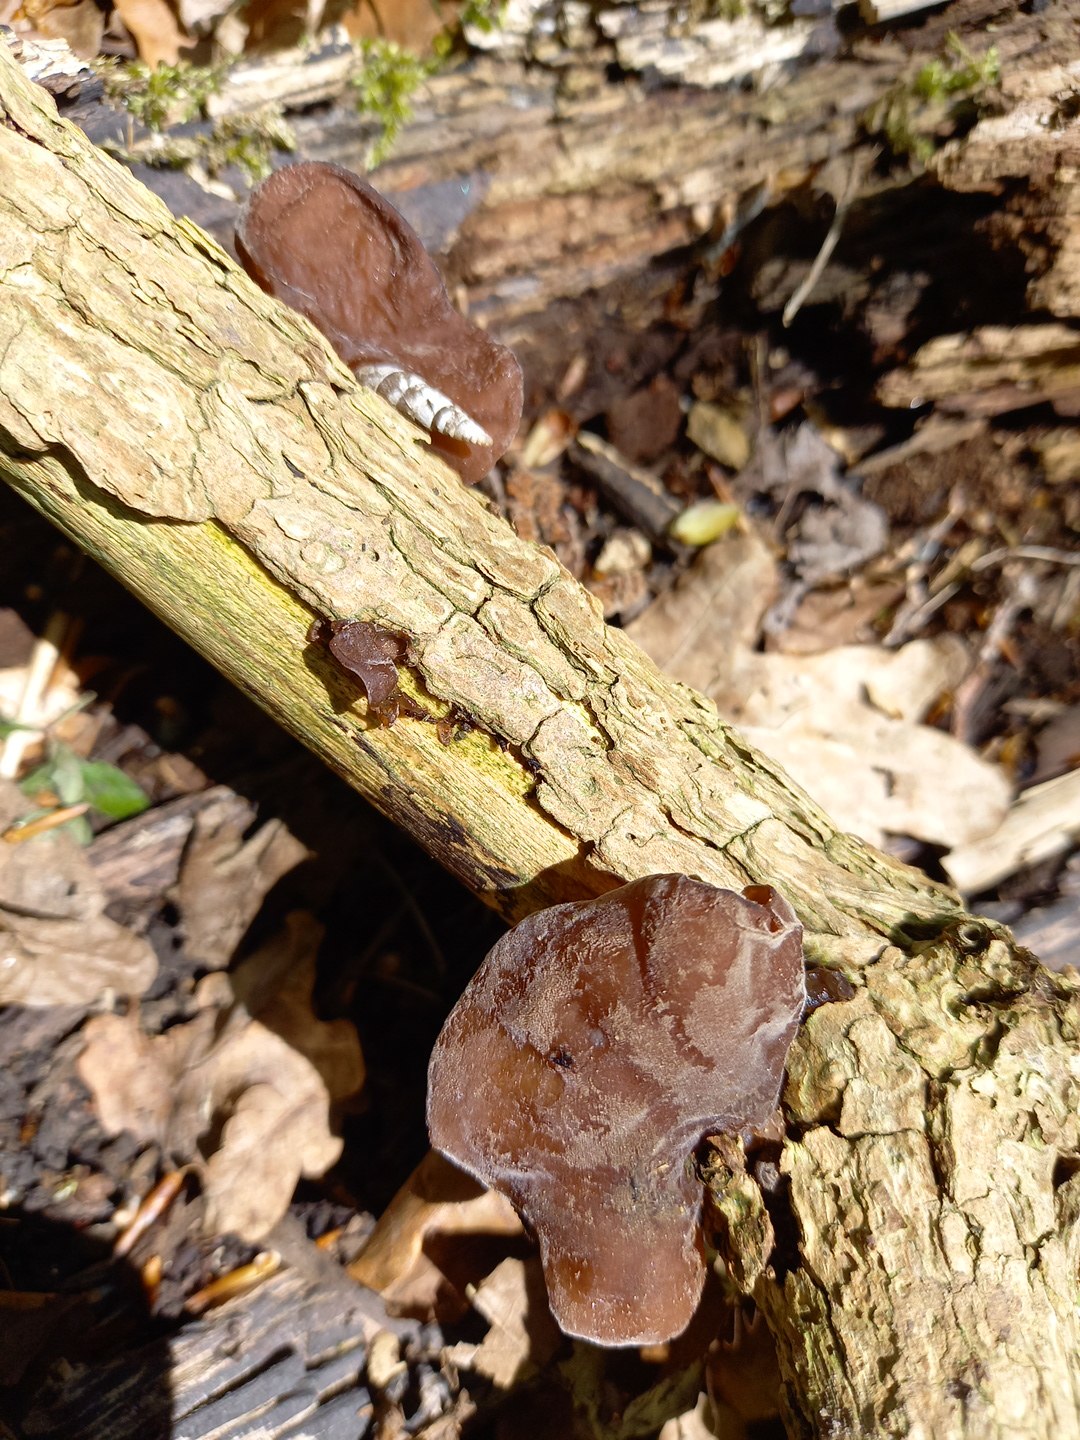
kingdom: Fungi
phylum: Basidiomycota
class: Agaricomycetes
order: Auriculariales
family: Auriculariaceae
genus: Auricularia
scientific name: Auricularia auricula-judae
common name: almindelig judasøre
